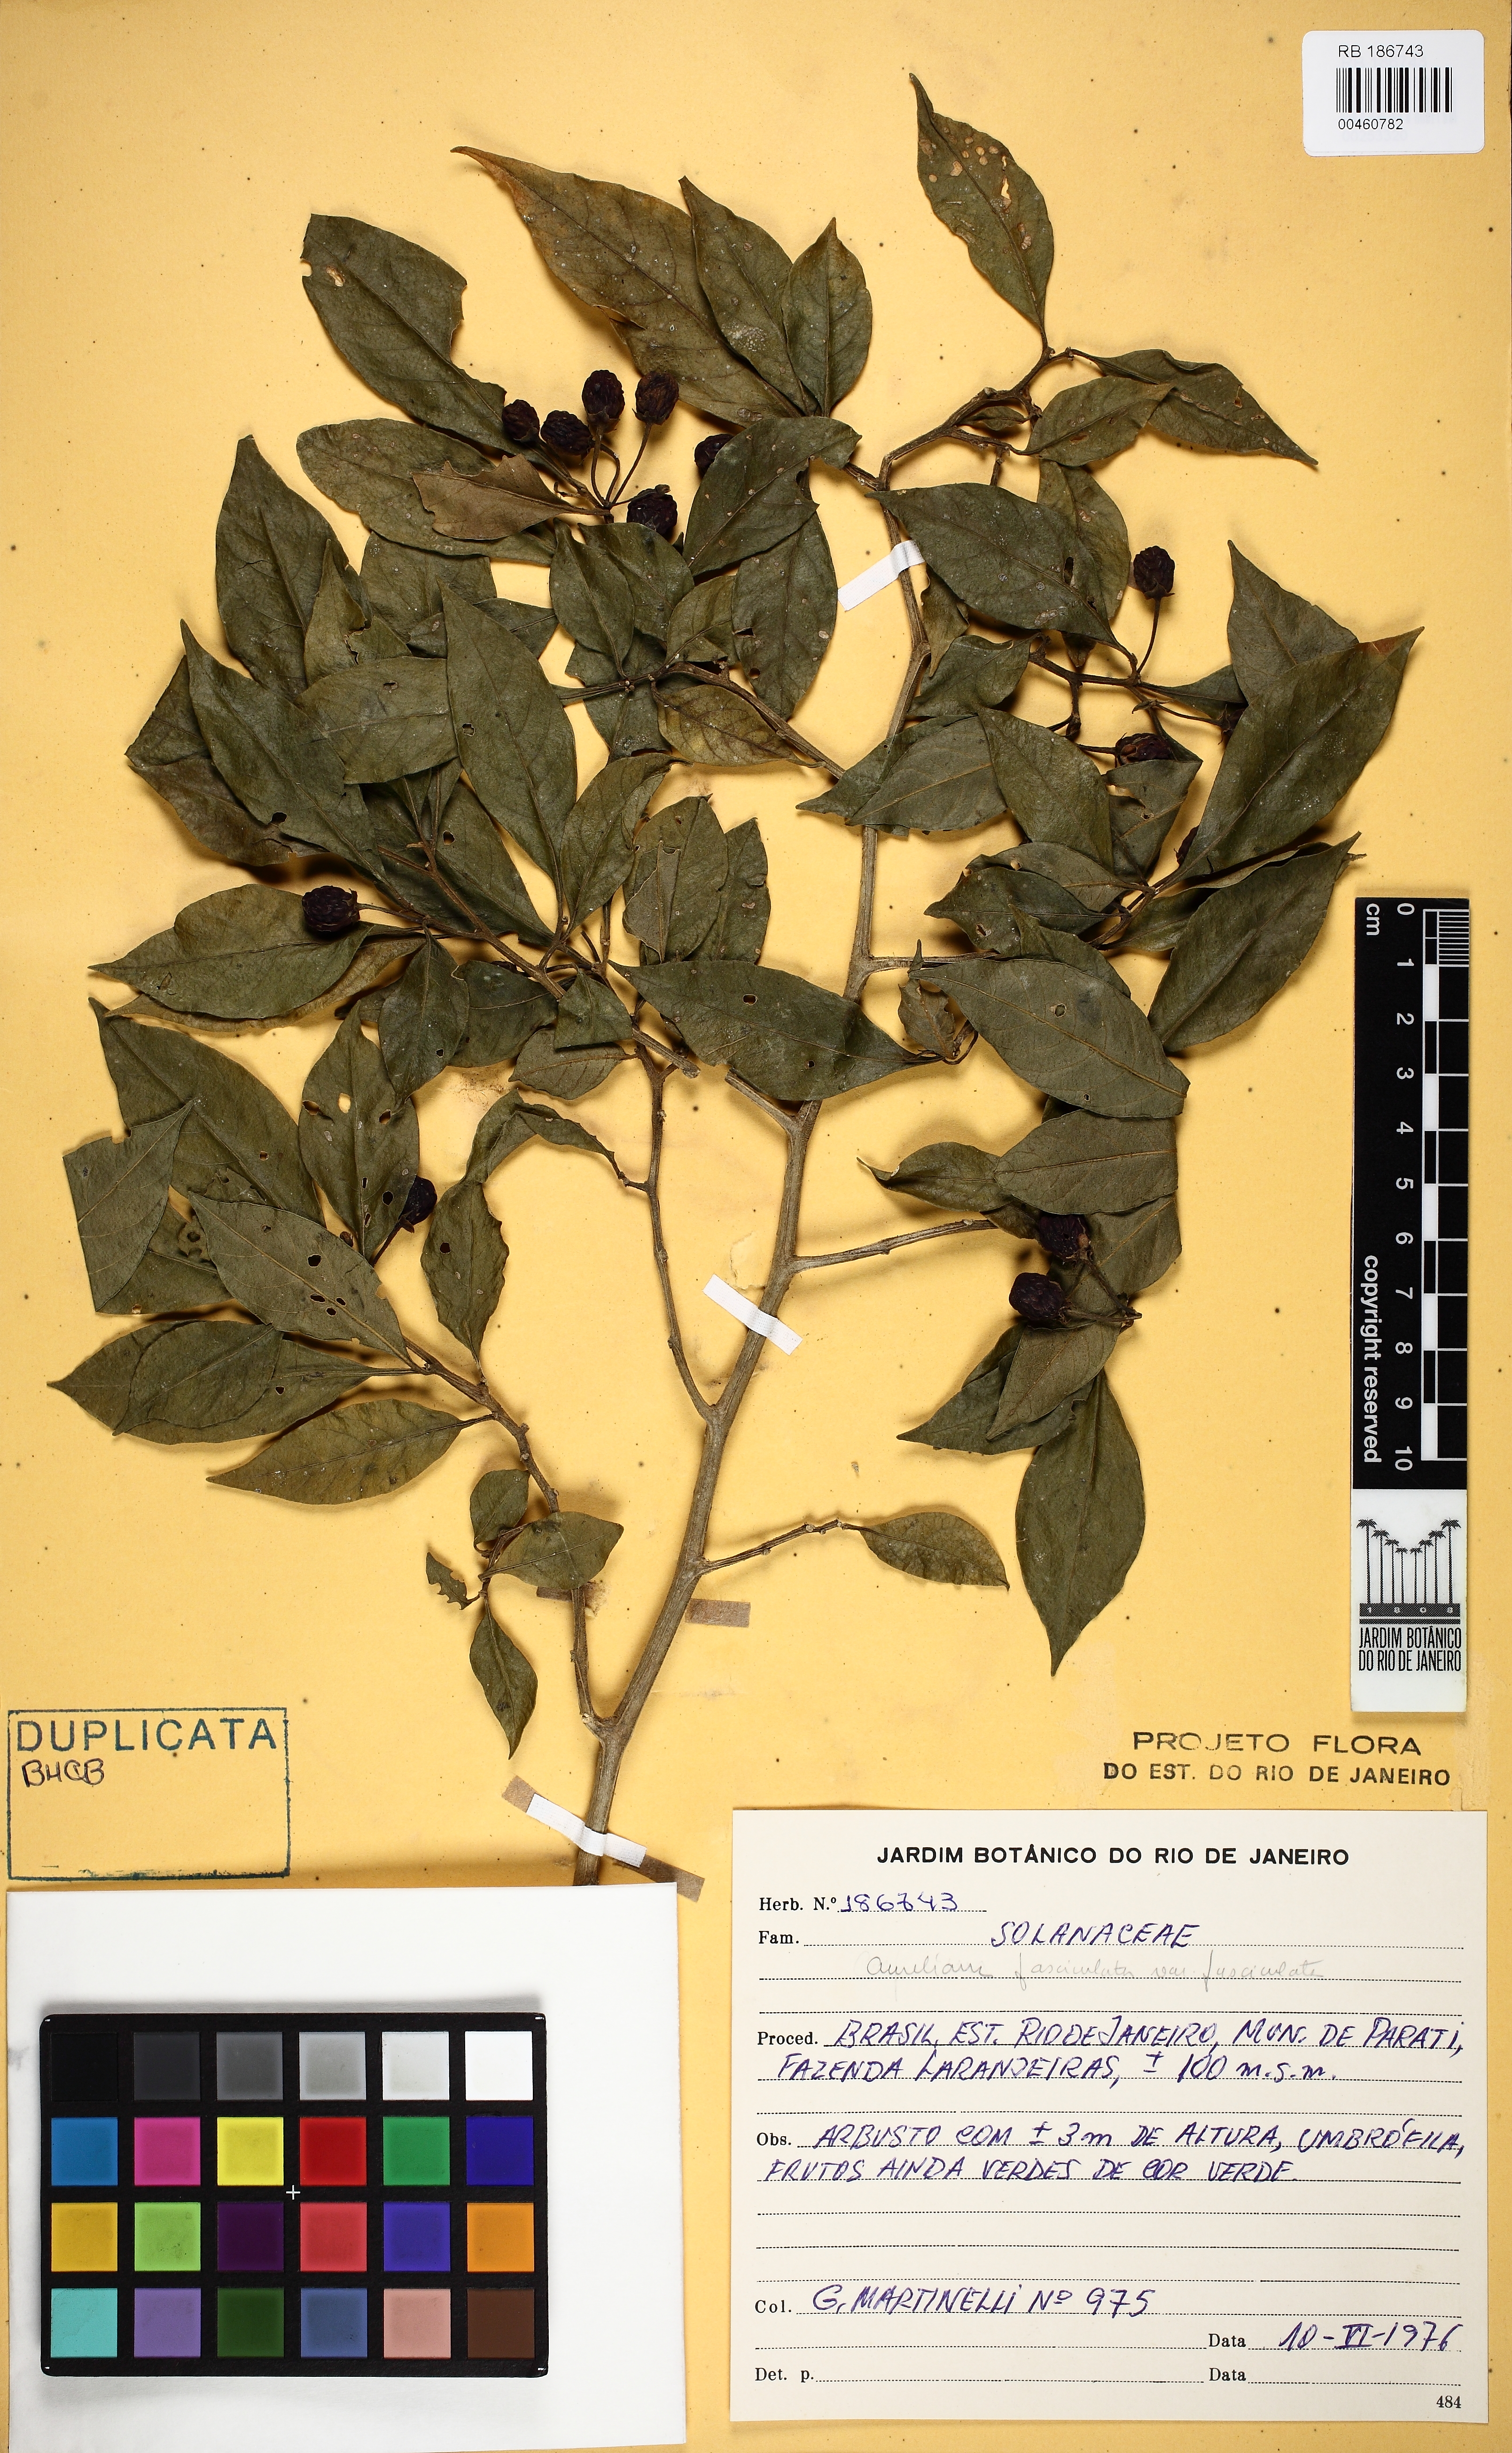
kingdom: Plantae
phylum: Tracheophyta
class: Magnoliopsida
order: Solanales
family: Solanaceae
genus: Athenaea
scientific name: Athenaea fasciculata
